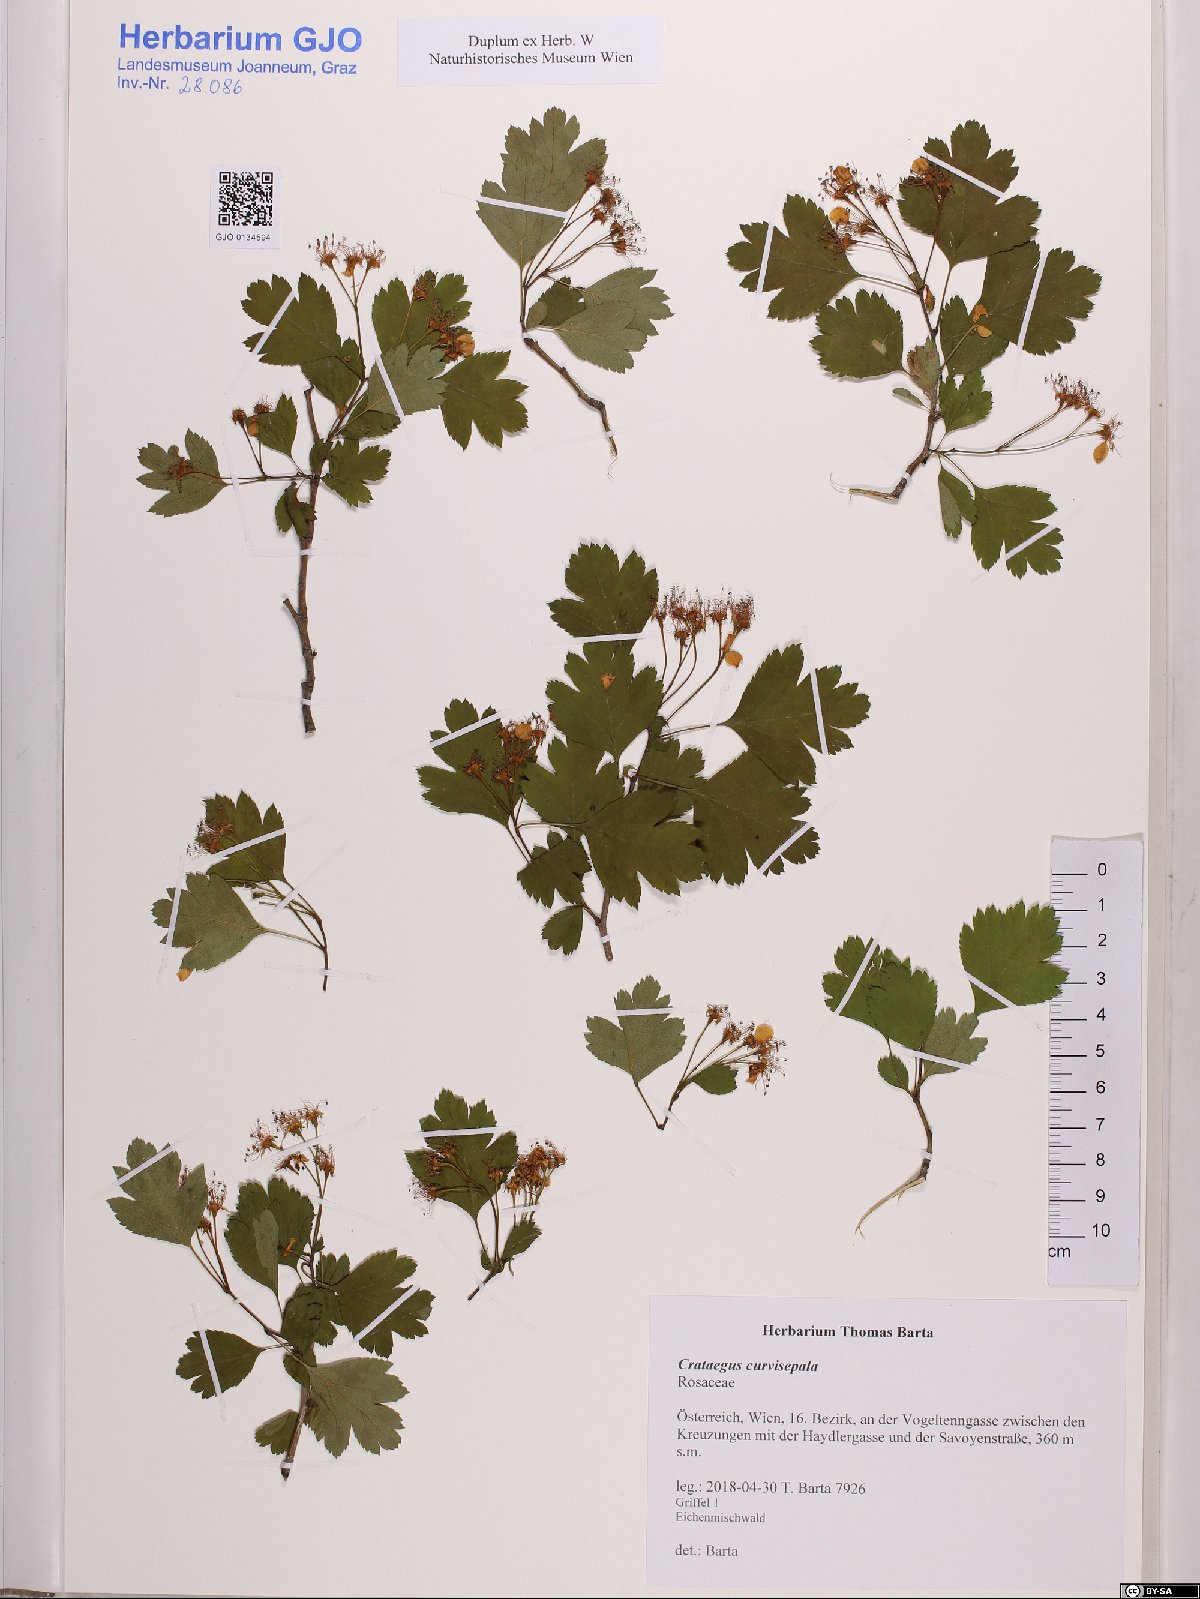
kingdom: Plantae
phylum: Tracheophyta
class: Magnoliopsida
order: Rosales
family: Rosaceae
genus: Crataegus
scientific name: Crataegus praemonticola
